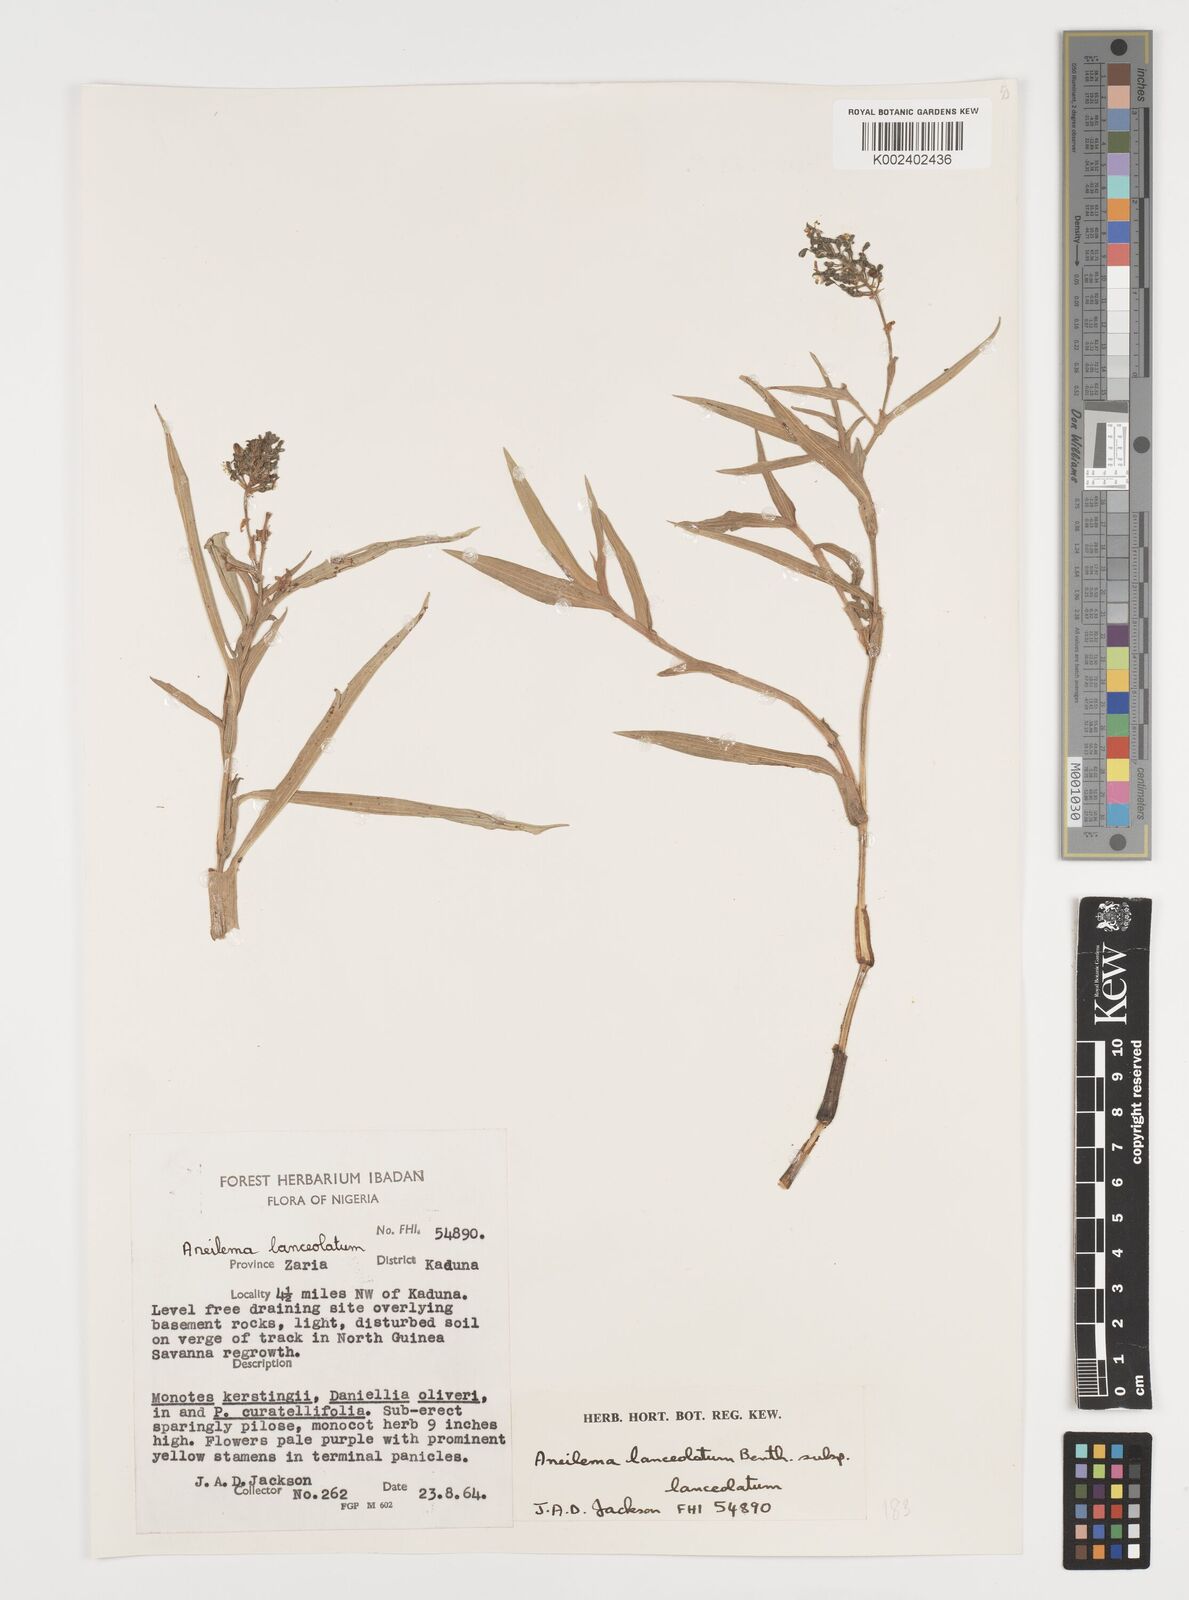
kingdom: Plantae
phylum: Tracheophyta
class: Liliopsida
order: Commelinales
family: Commelinaceae
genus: Aneilema
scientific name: Aneilema lanceolatum
